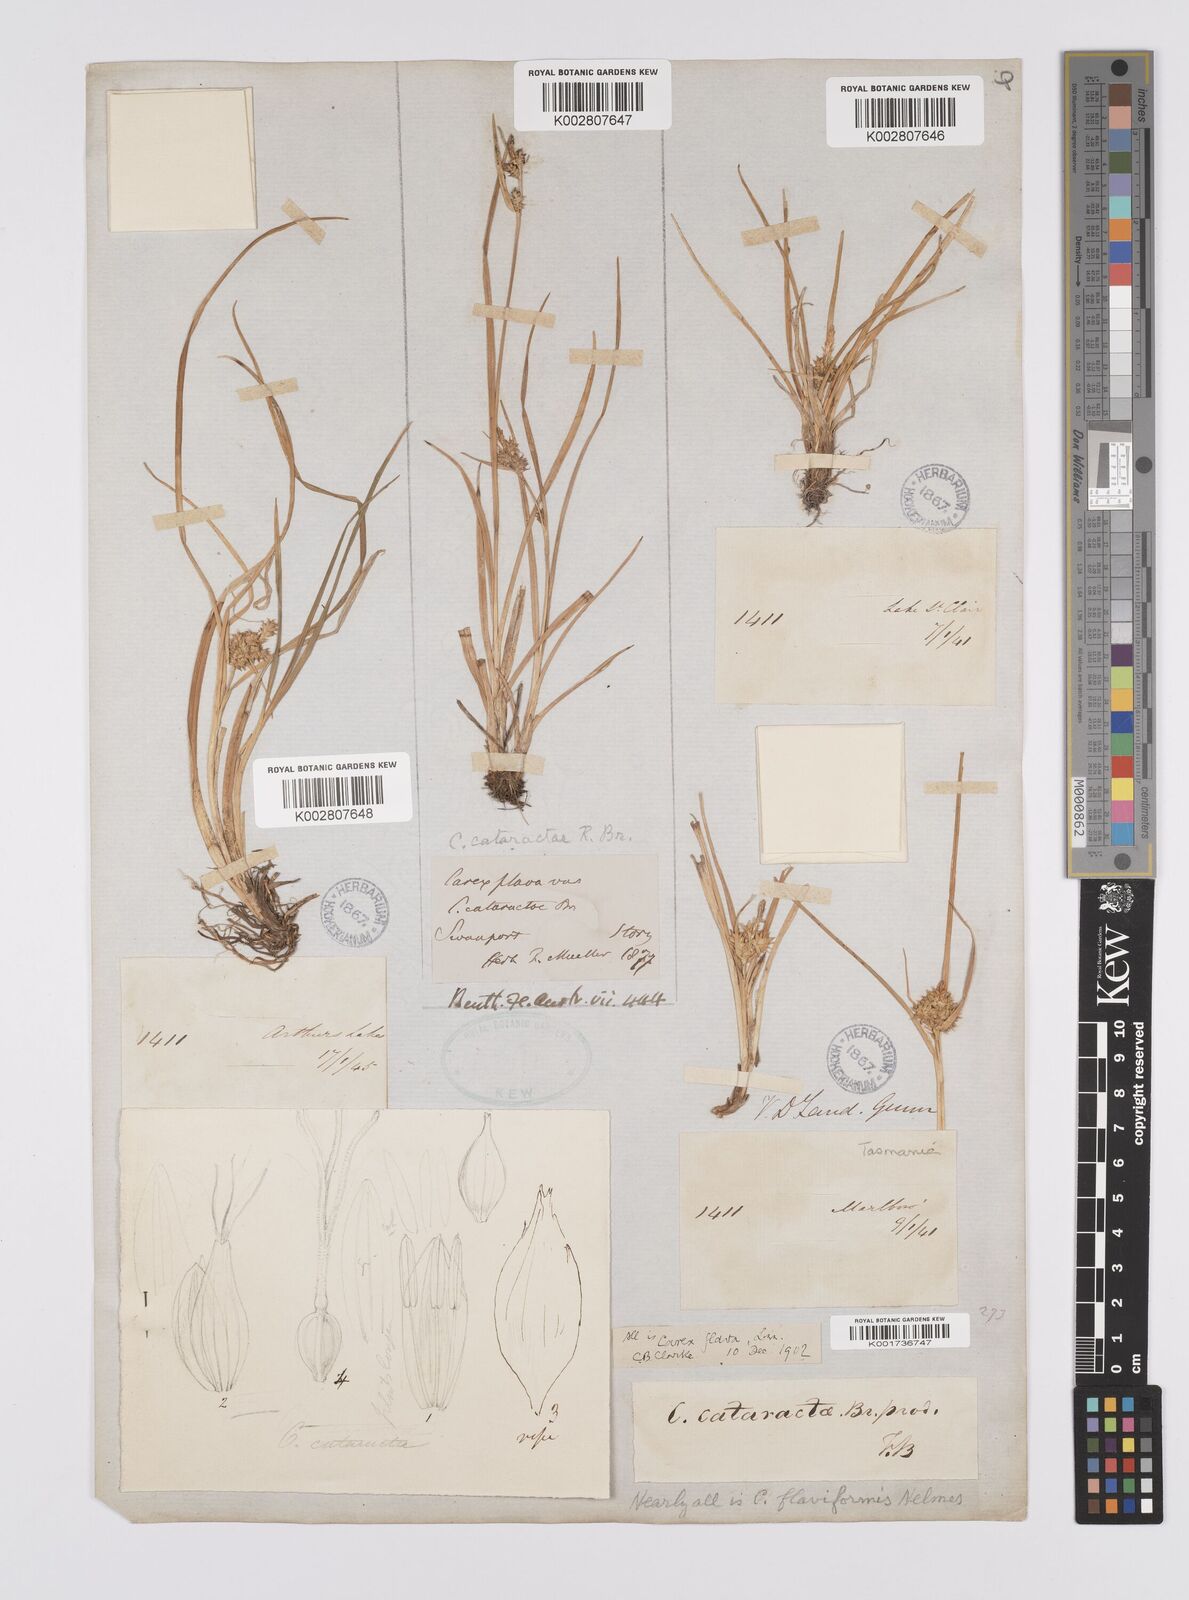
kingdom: Plantae
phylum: Tracheophyta
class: Liliopsida
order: Poales
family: Cyperaceae
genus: Carex
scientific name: Carex cataractae
